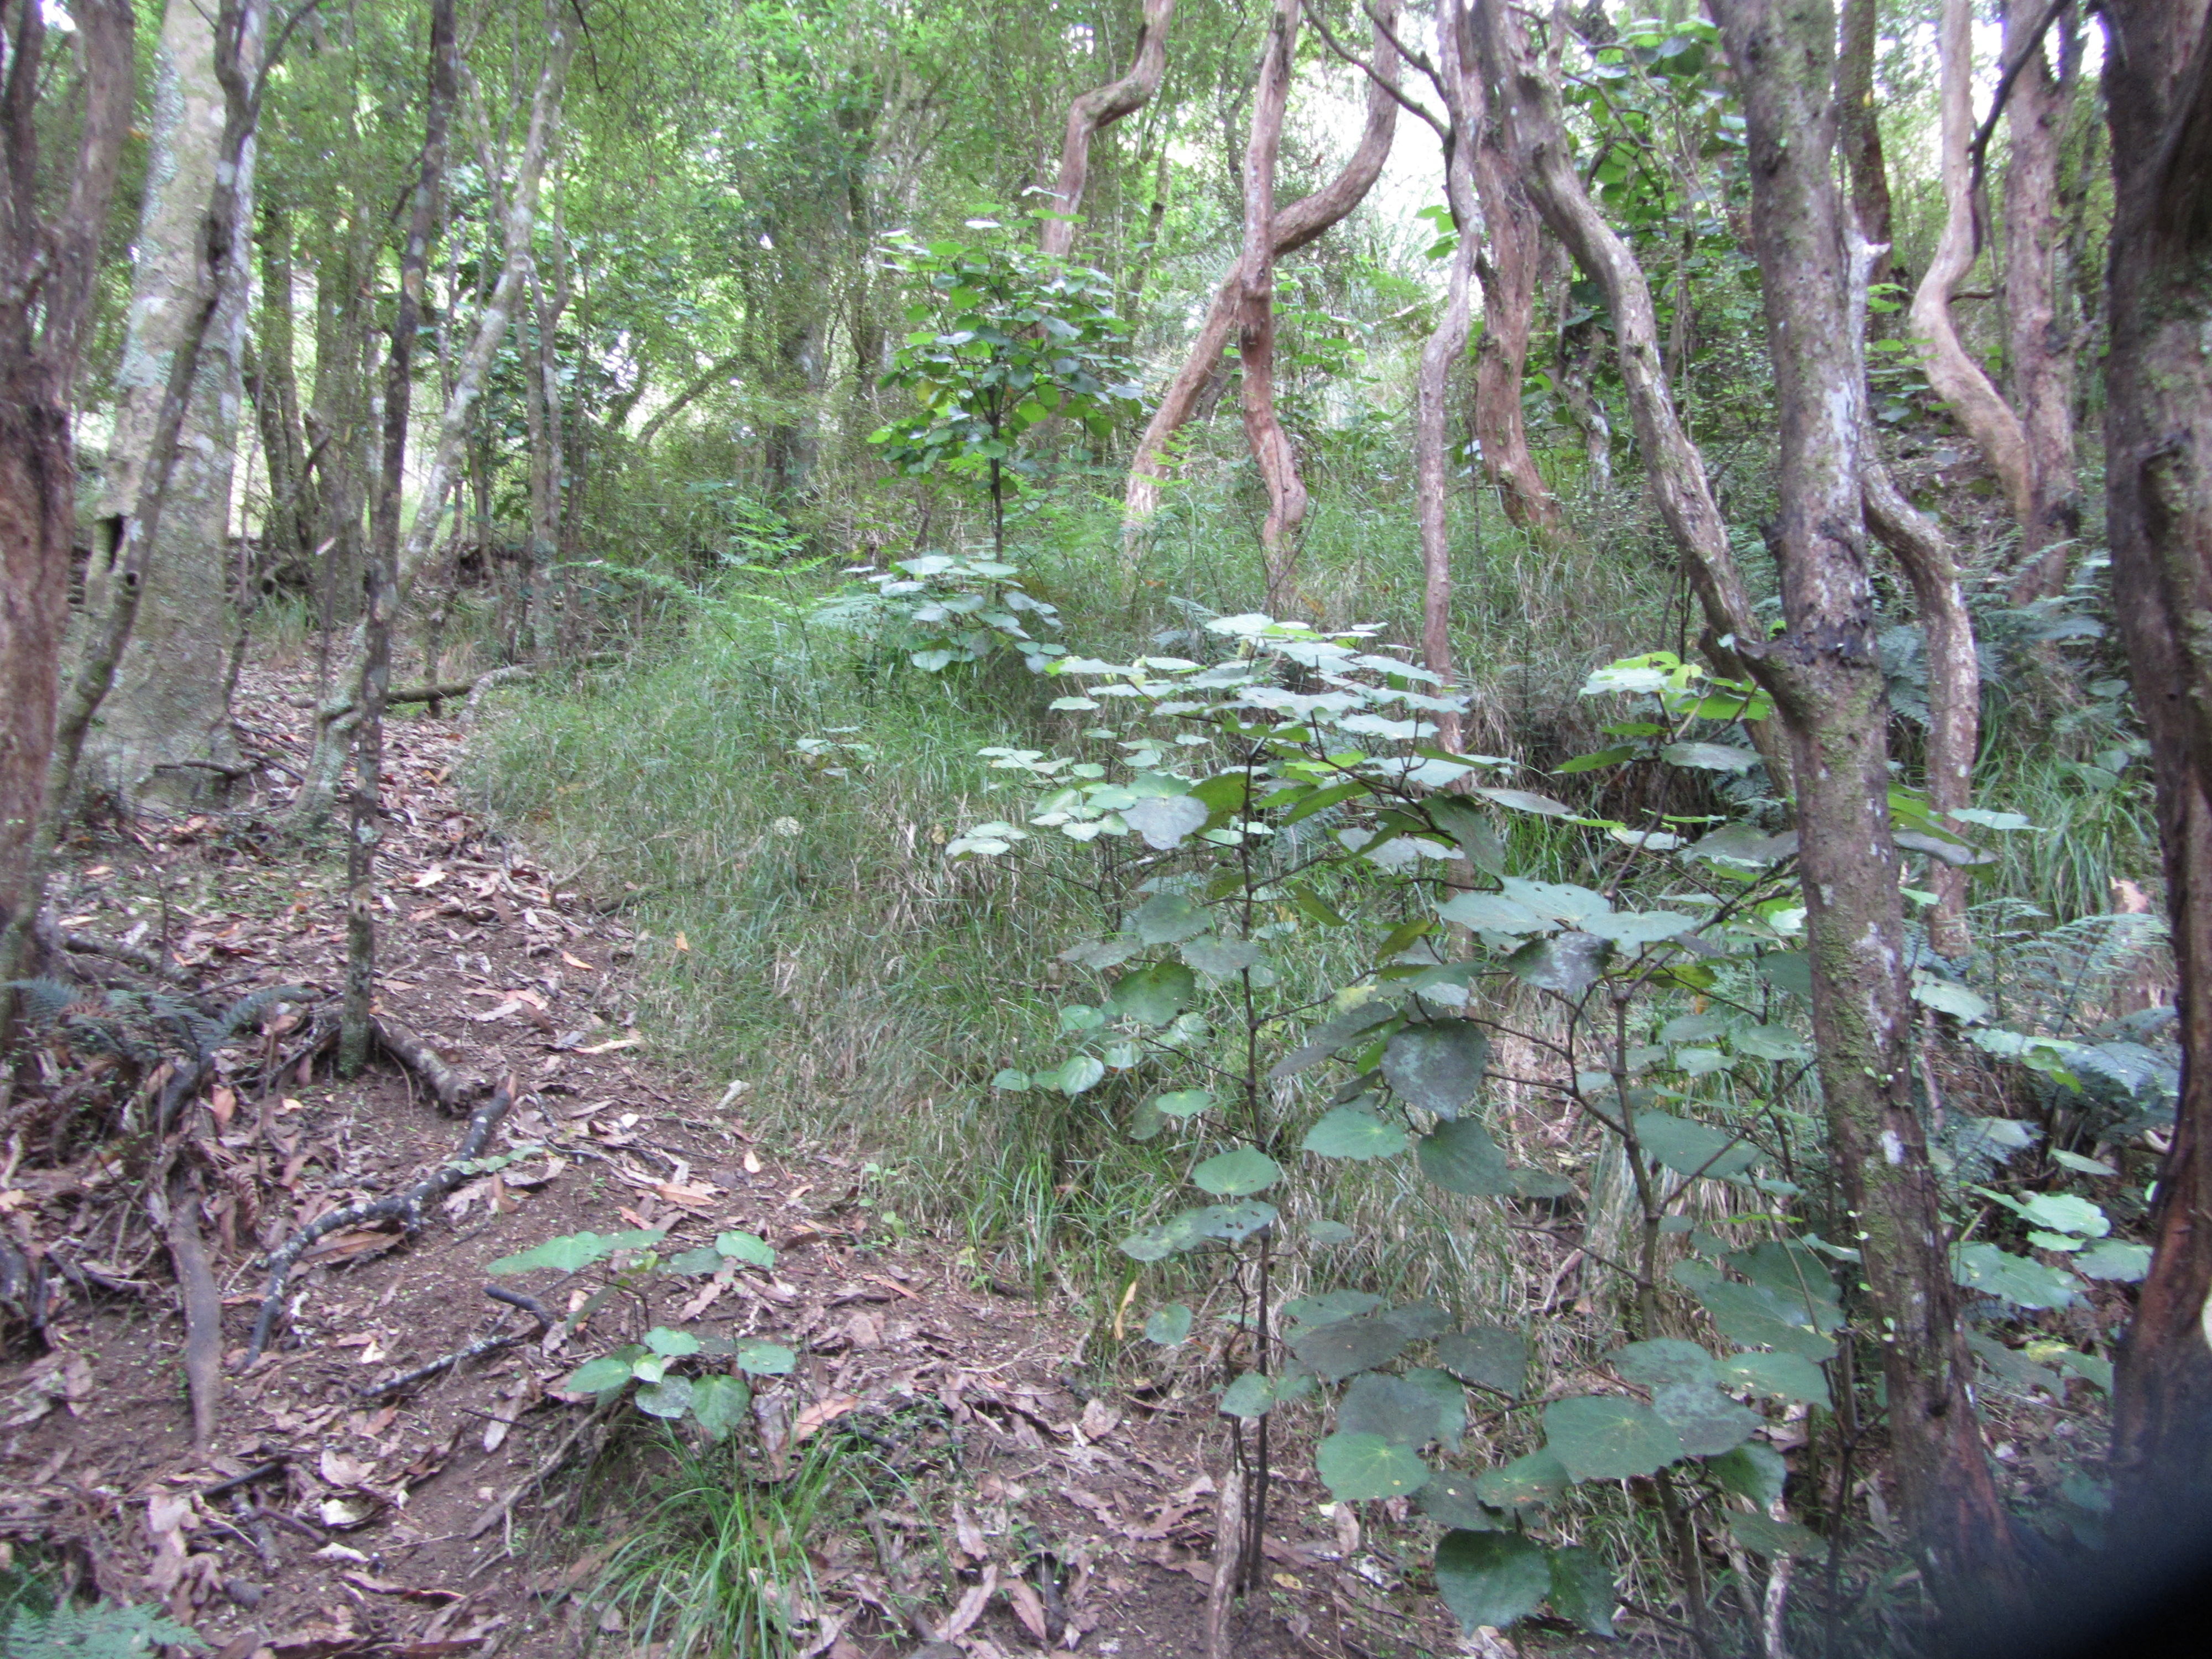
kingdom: Plantae
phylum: Tracheophyta
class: Liliopsida
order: Poales
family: Poaceae
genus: Microlaena
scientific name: Microlaena polynoda
